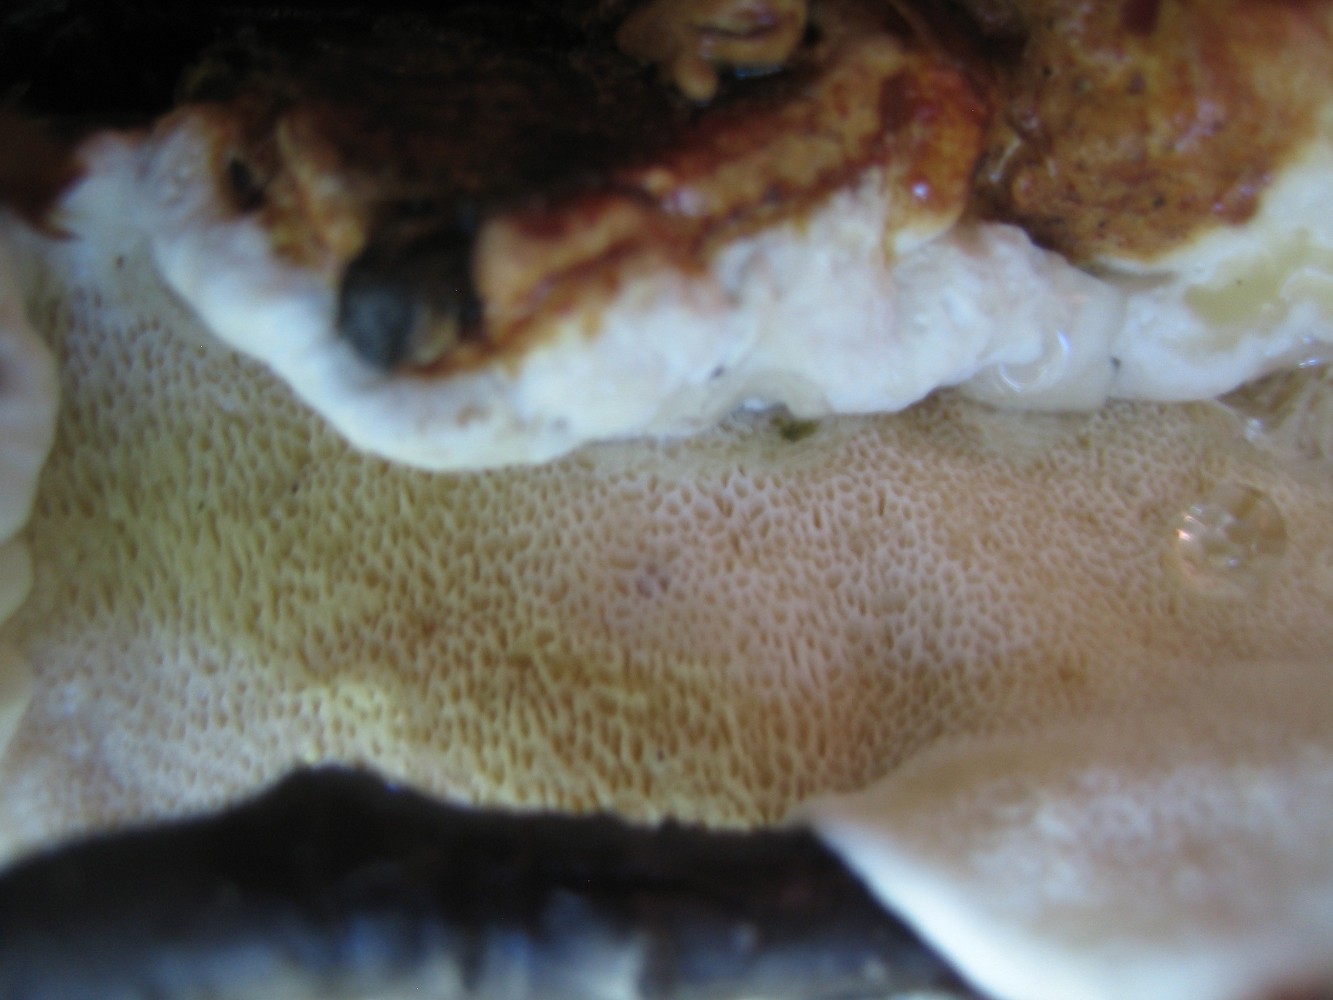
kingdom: Fungi
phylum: Basidiomycota
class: Agaricomycetes
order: Polyporales
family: Fomitopsidaceae
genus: Fomitopsis
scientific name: Fomitopsis pinicola
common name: randbæltet hovporesvamp
